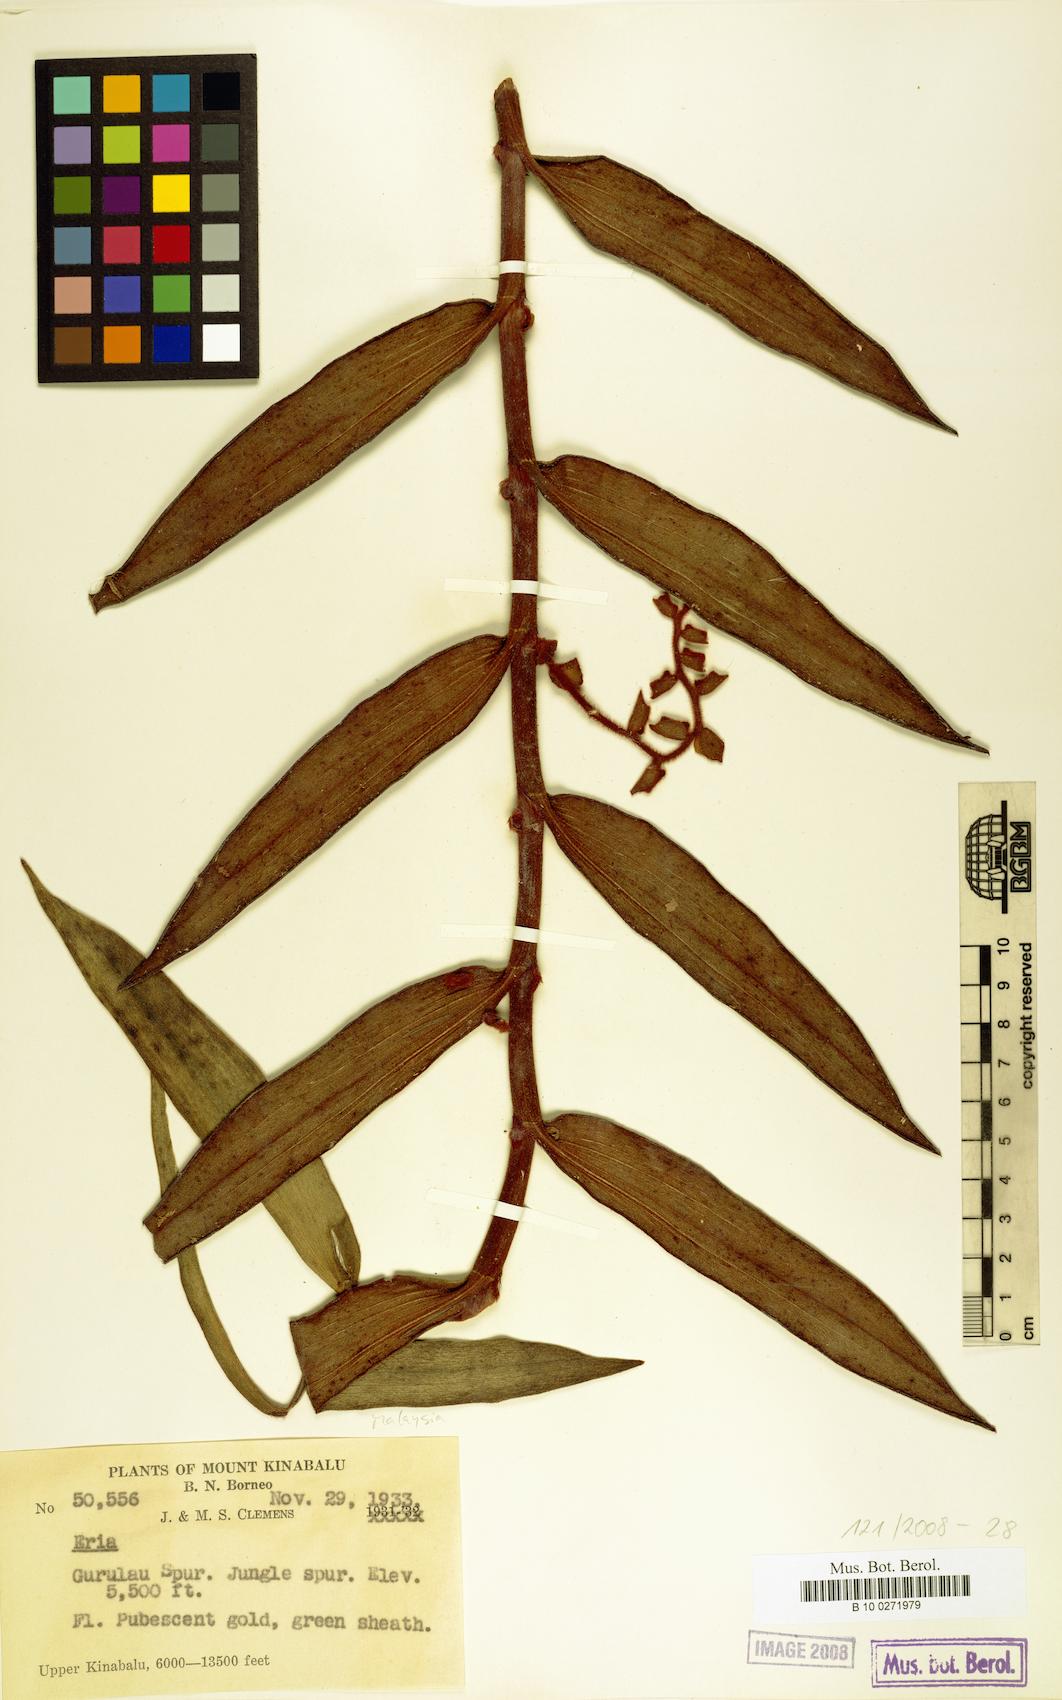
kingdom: Plantae
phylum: Tracheophyta
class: Liliopsida
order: Asparagales
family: Orchidaceae
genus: Eria
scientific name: Eria
